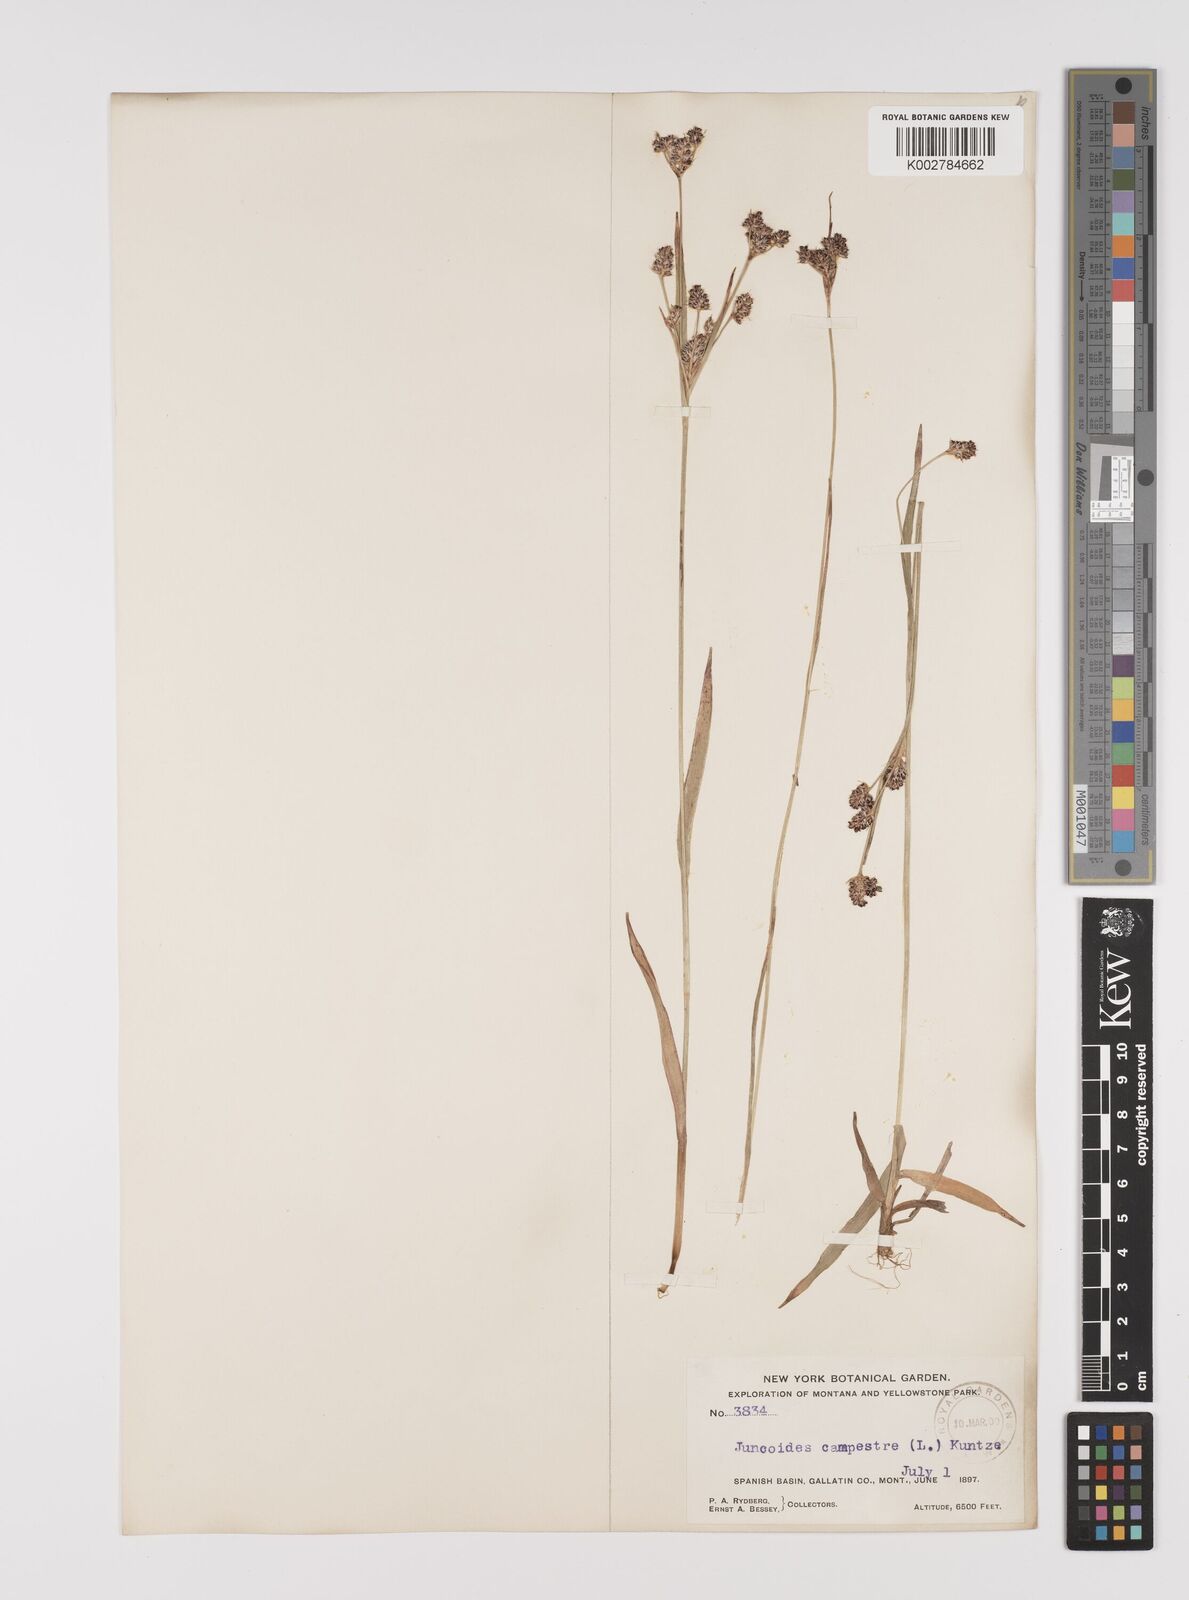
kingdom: Plantae
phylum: Tracheophyta
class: Liliopsida
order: Poales
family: Juncaceae
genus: Luzula
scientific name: Luzula campestris
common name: Field wood-rush
